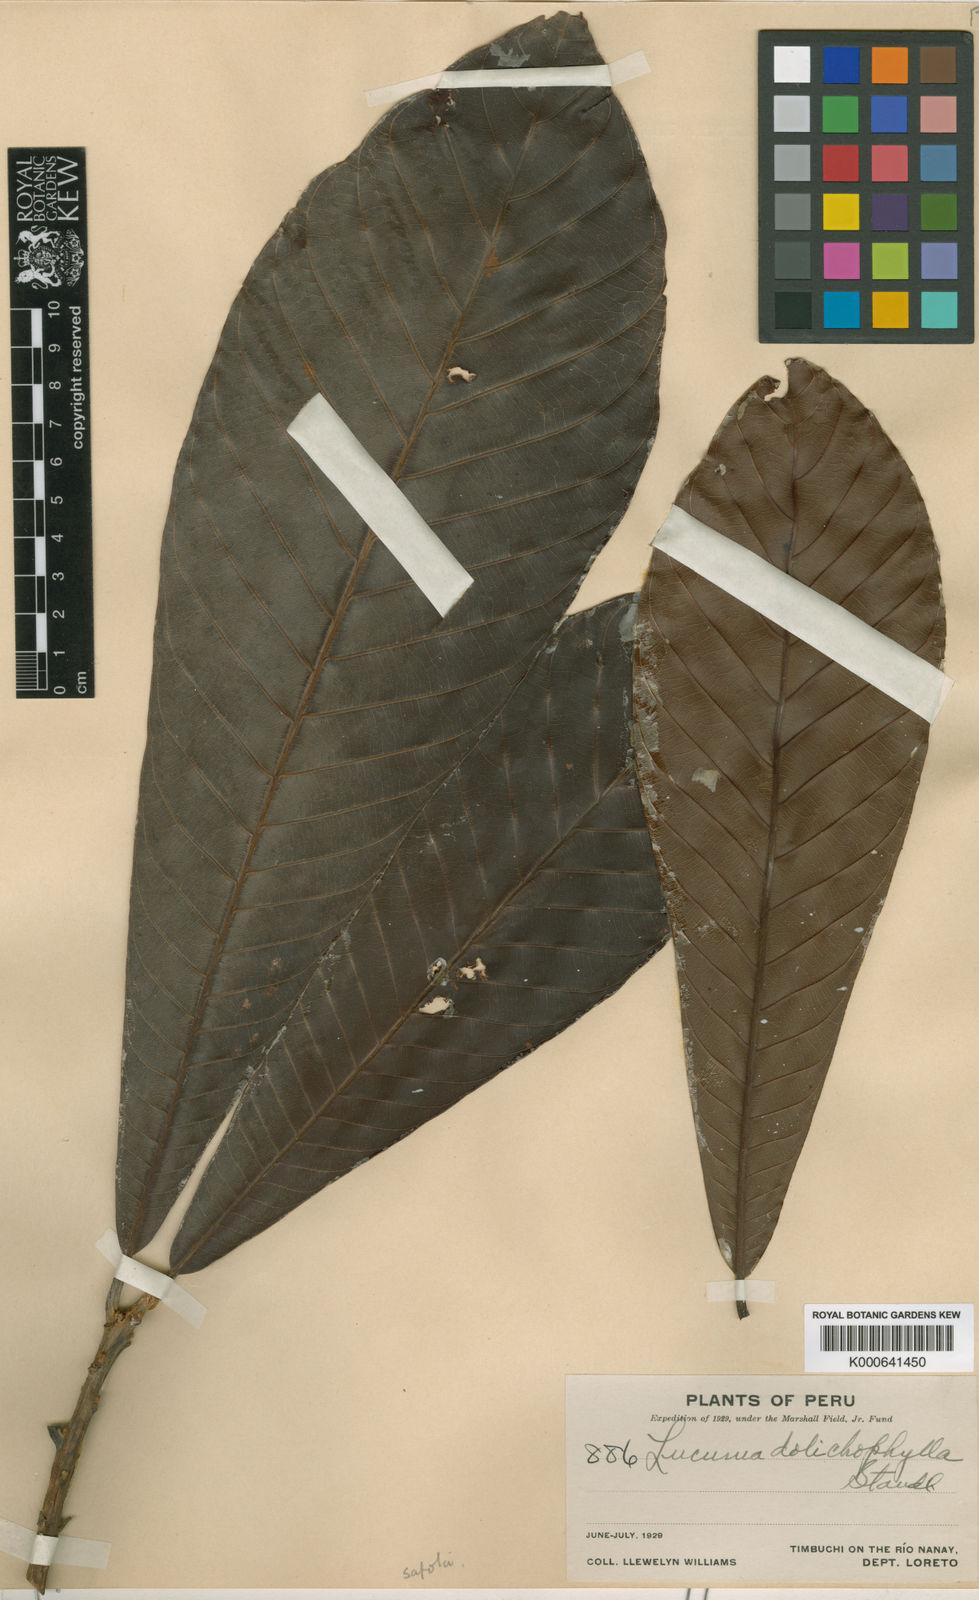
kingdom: Plantae
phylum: Tracheophyta
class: Magnoliopsida
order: Ericales
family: Sapotaceae
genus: Pouteria
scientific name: Pouteria guianensis
